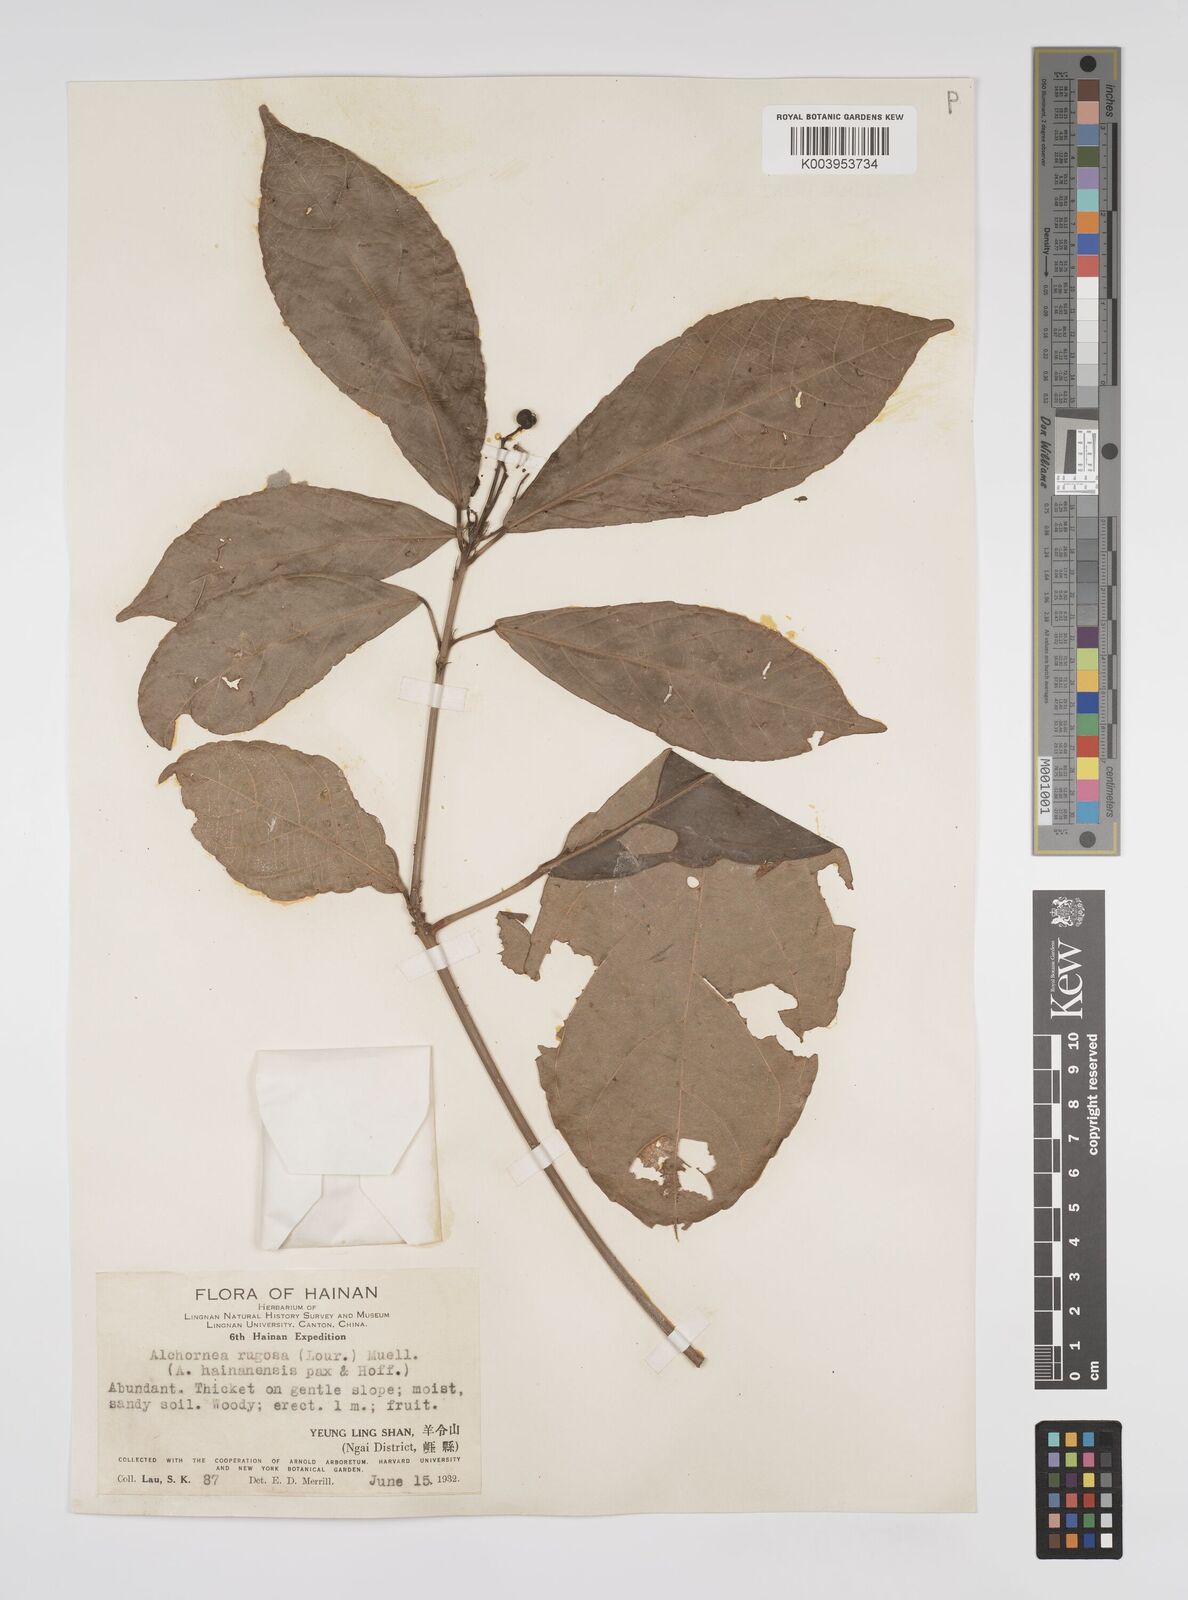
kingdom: Plantae
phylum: Tracheophyta
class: Magnoliopsida
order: Malpighiales
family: Euphorbiaceae
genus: Alchornea
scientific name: Alchornea rugosa
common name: Alchorntree
